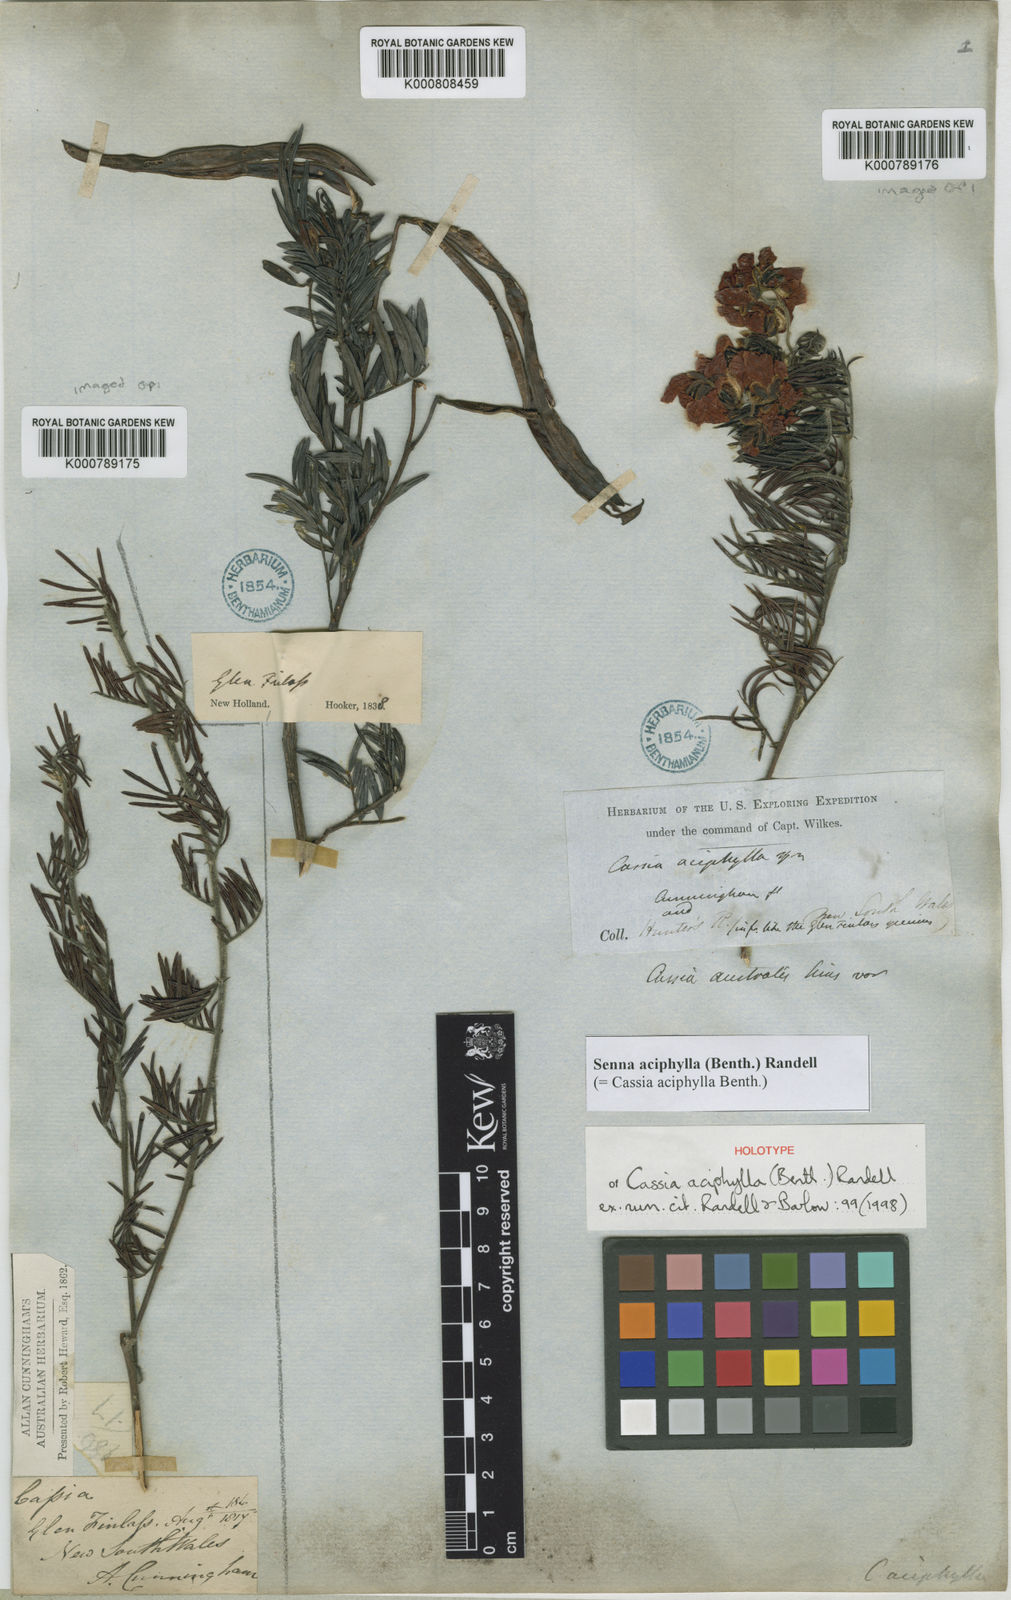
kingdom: Plantae
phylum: Tracheophyta
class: Magnoliopsida
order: Fabales
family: Fabaceae
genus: Senna
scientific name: Senna aciphylla
